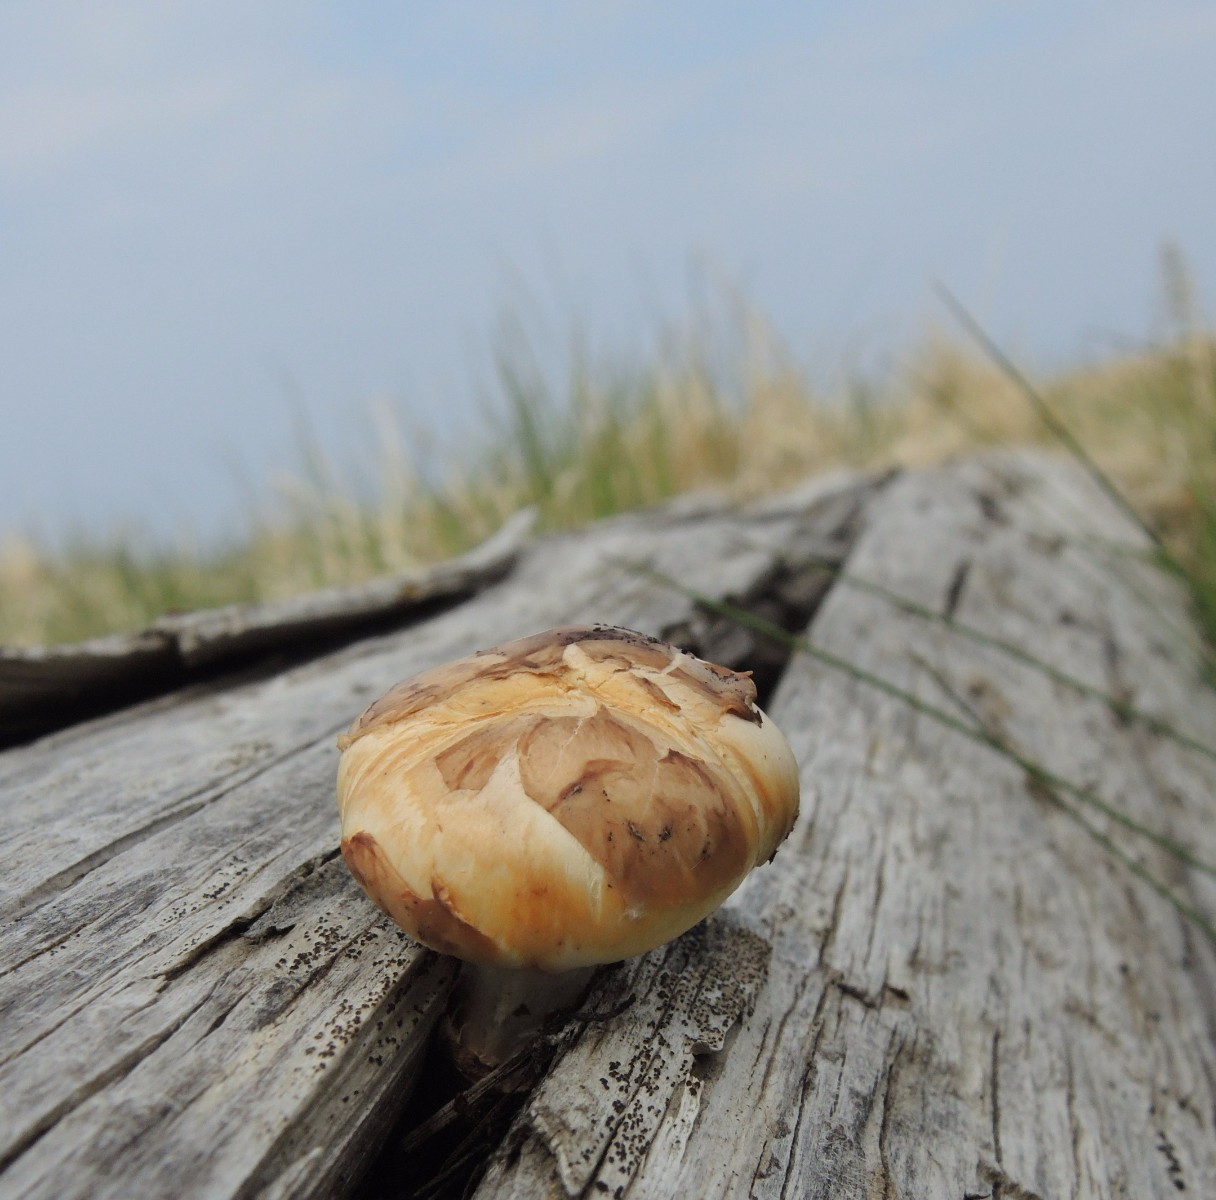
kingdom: Fungi
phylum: Basidiomycota
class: Agaricomycetes
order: Gloeophyllales
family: Gloeophyllaceae
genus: Neolentinus
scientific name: Neolentinus lepideus
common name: skællet sejhat
